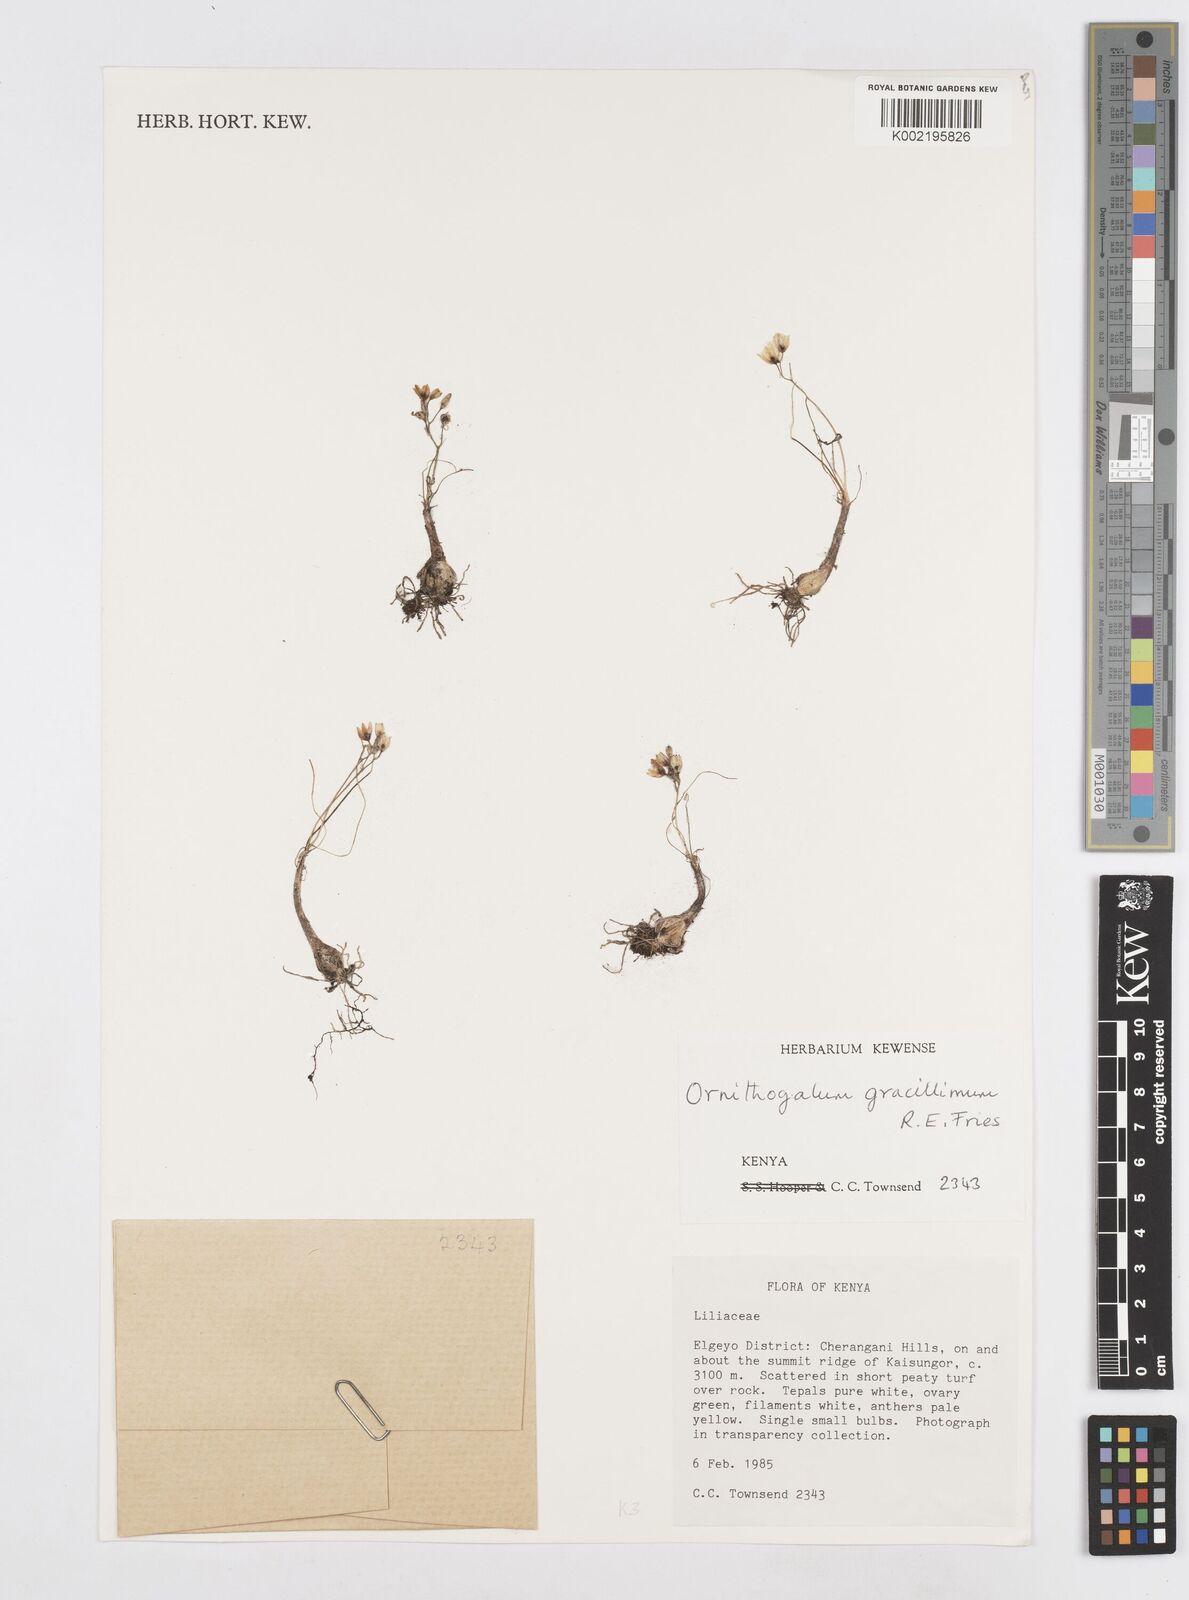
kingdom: Plantae
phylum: Tracheophyta
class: Liliopsida
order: Asparagales
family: Asparagaceae
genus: Ornithogalum
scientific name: Ornithogalum gracillimum
